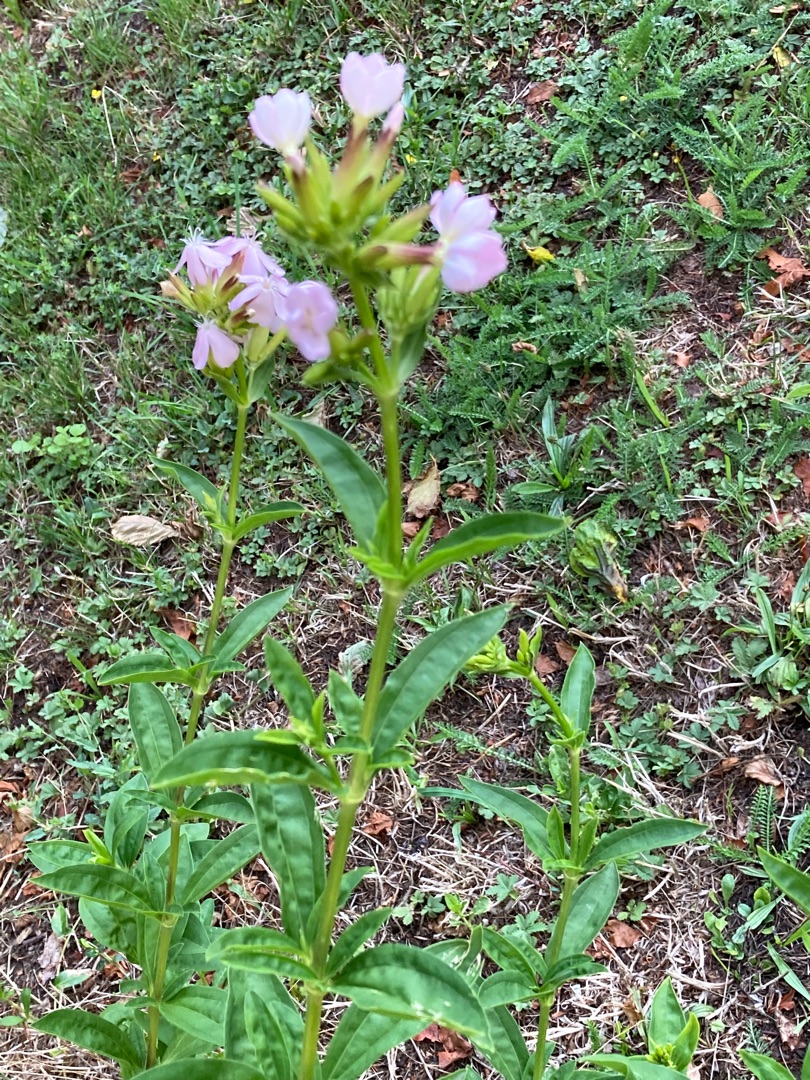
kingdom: Plantae
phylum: Tracheophyta
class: Magnoliopsida
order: Caryophyllales
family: Caryophyllaceae
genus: Saponaria
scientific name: Saponaria officinalis
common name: Sæbeurt
